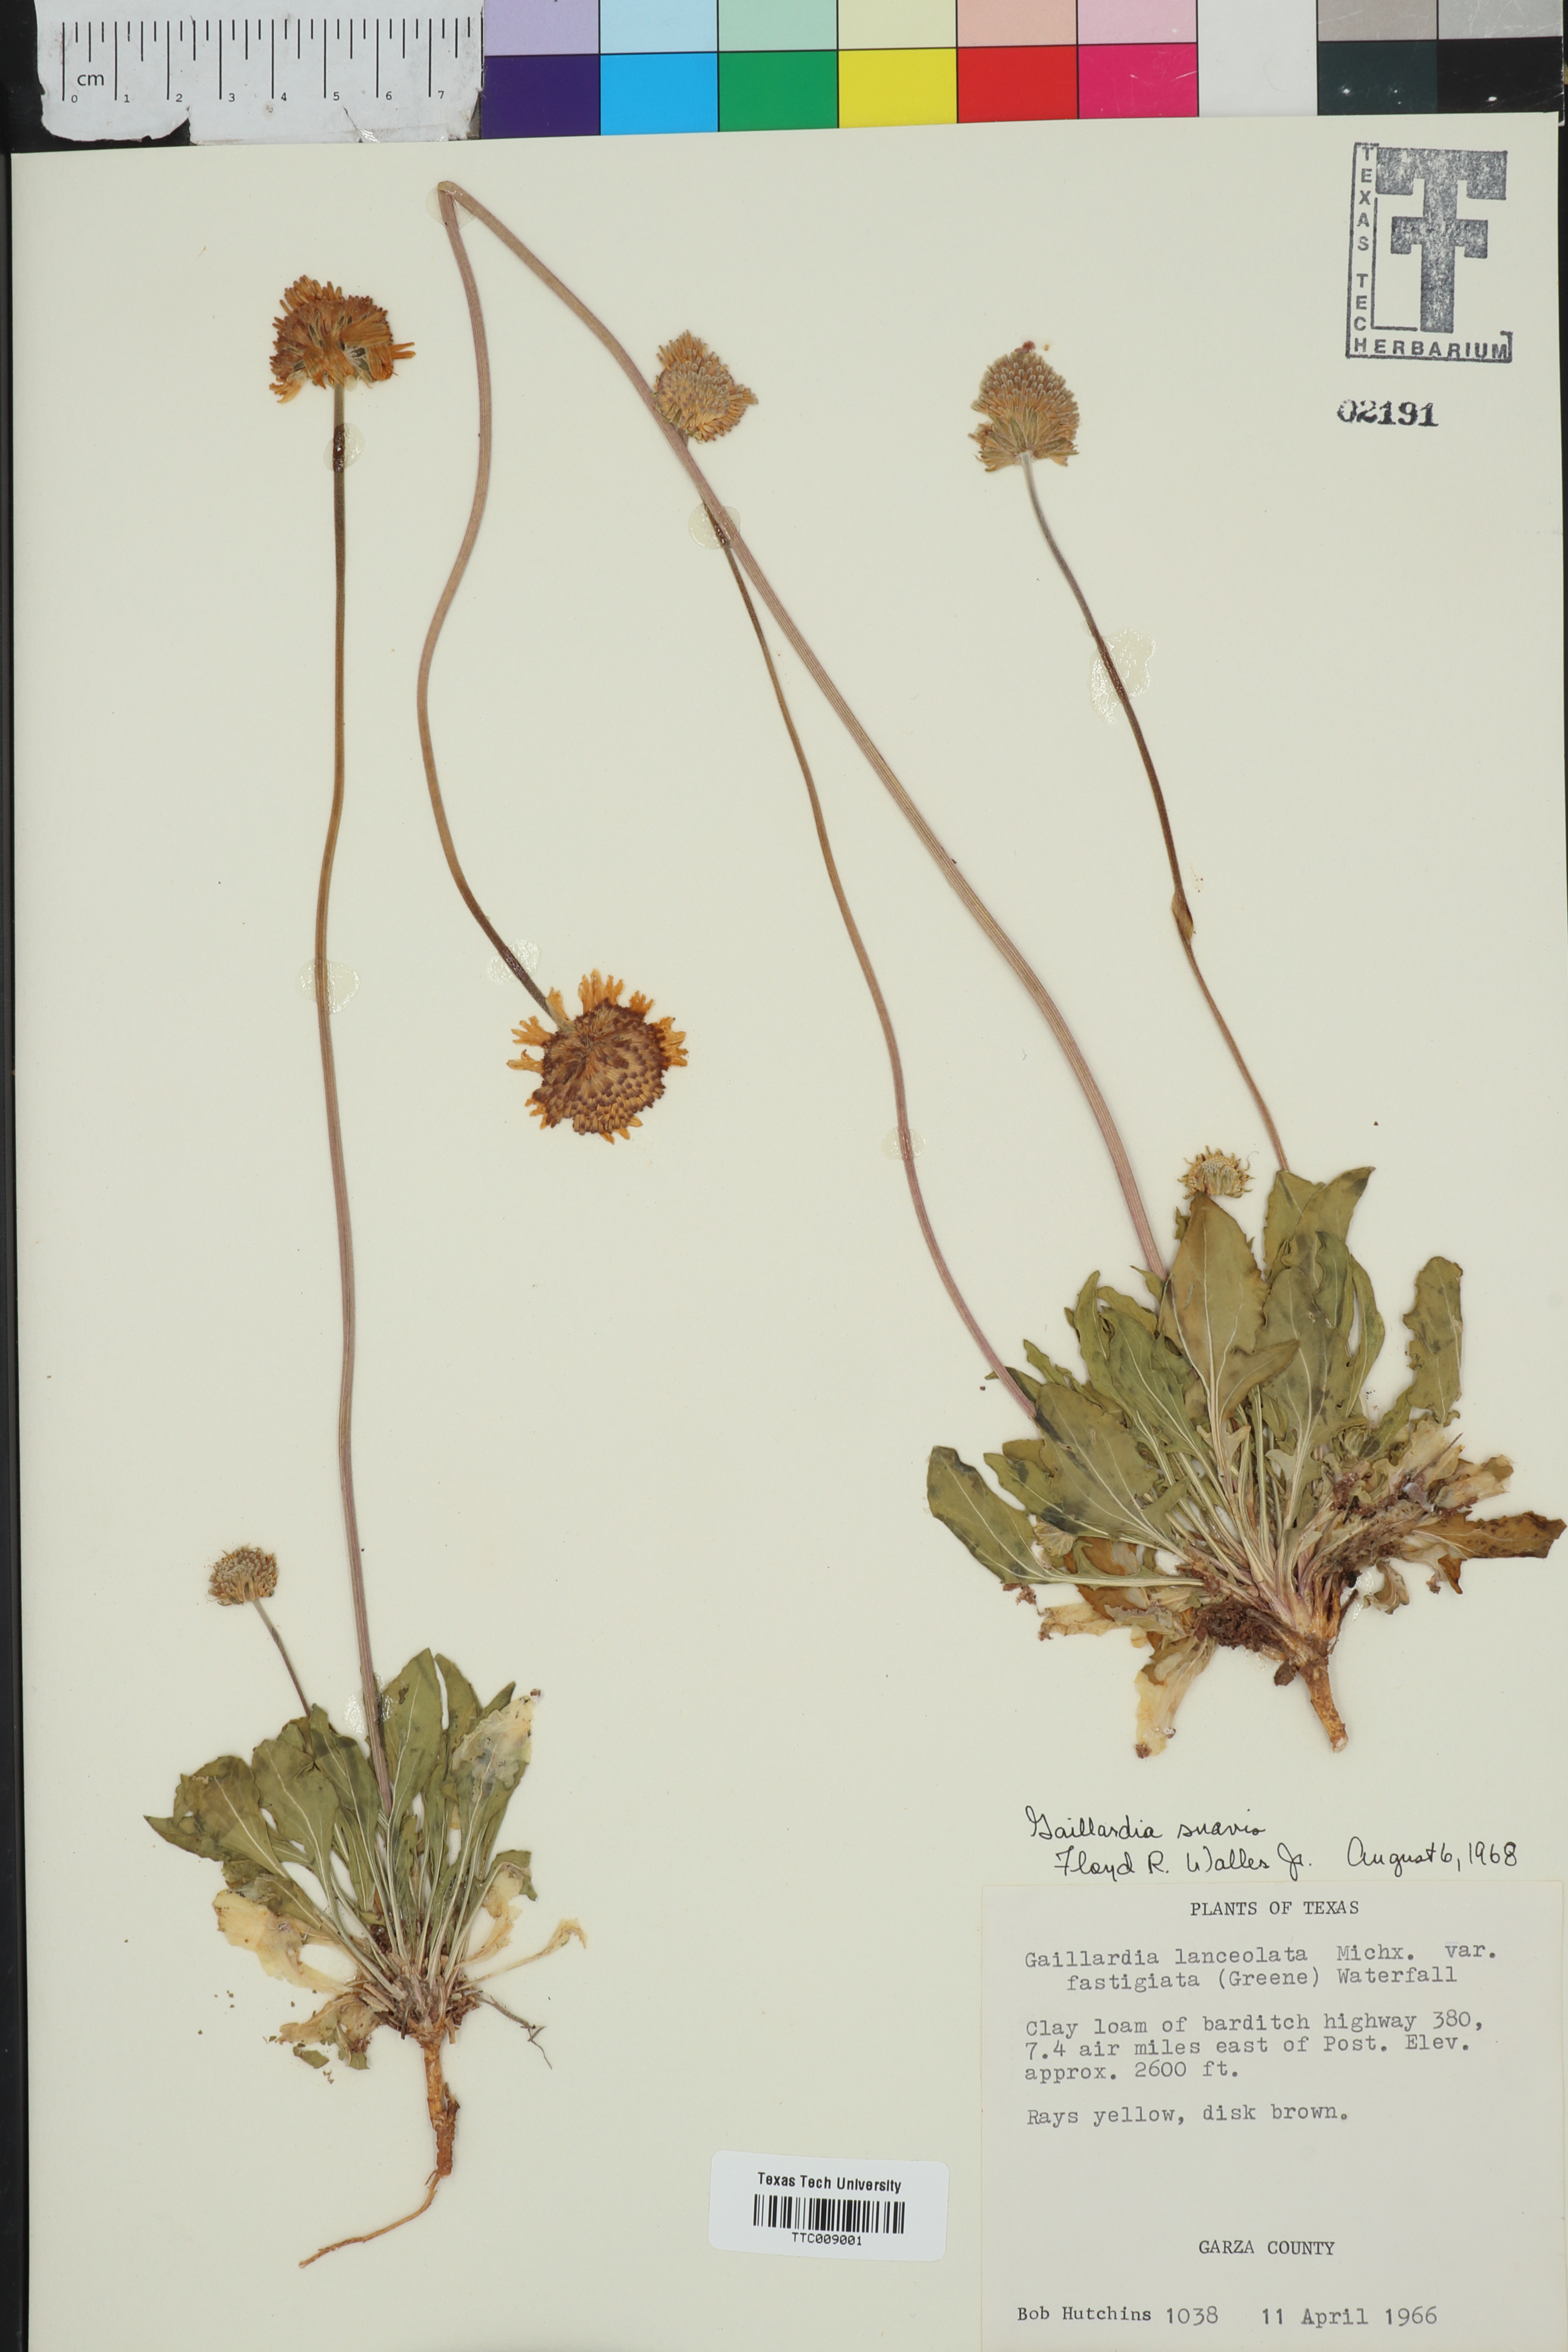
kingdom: Plantae
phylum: Tracheophyta
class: Magnoliopsida
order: Asterales
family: Asteraceae
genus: Gaillardia
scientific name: Gaillardia suavis
